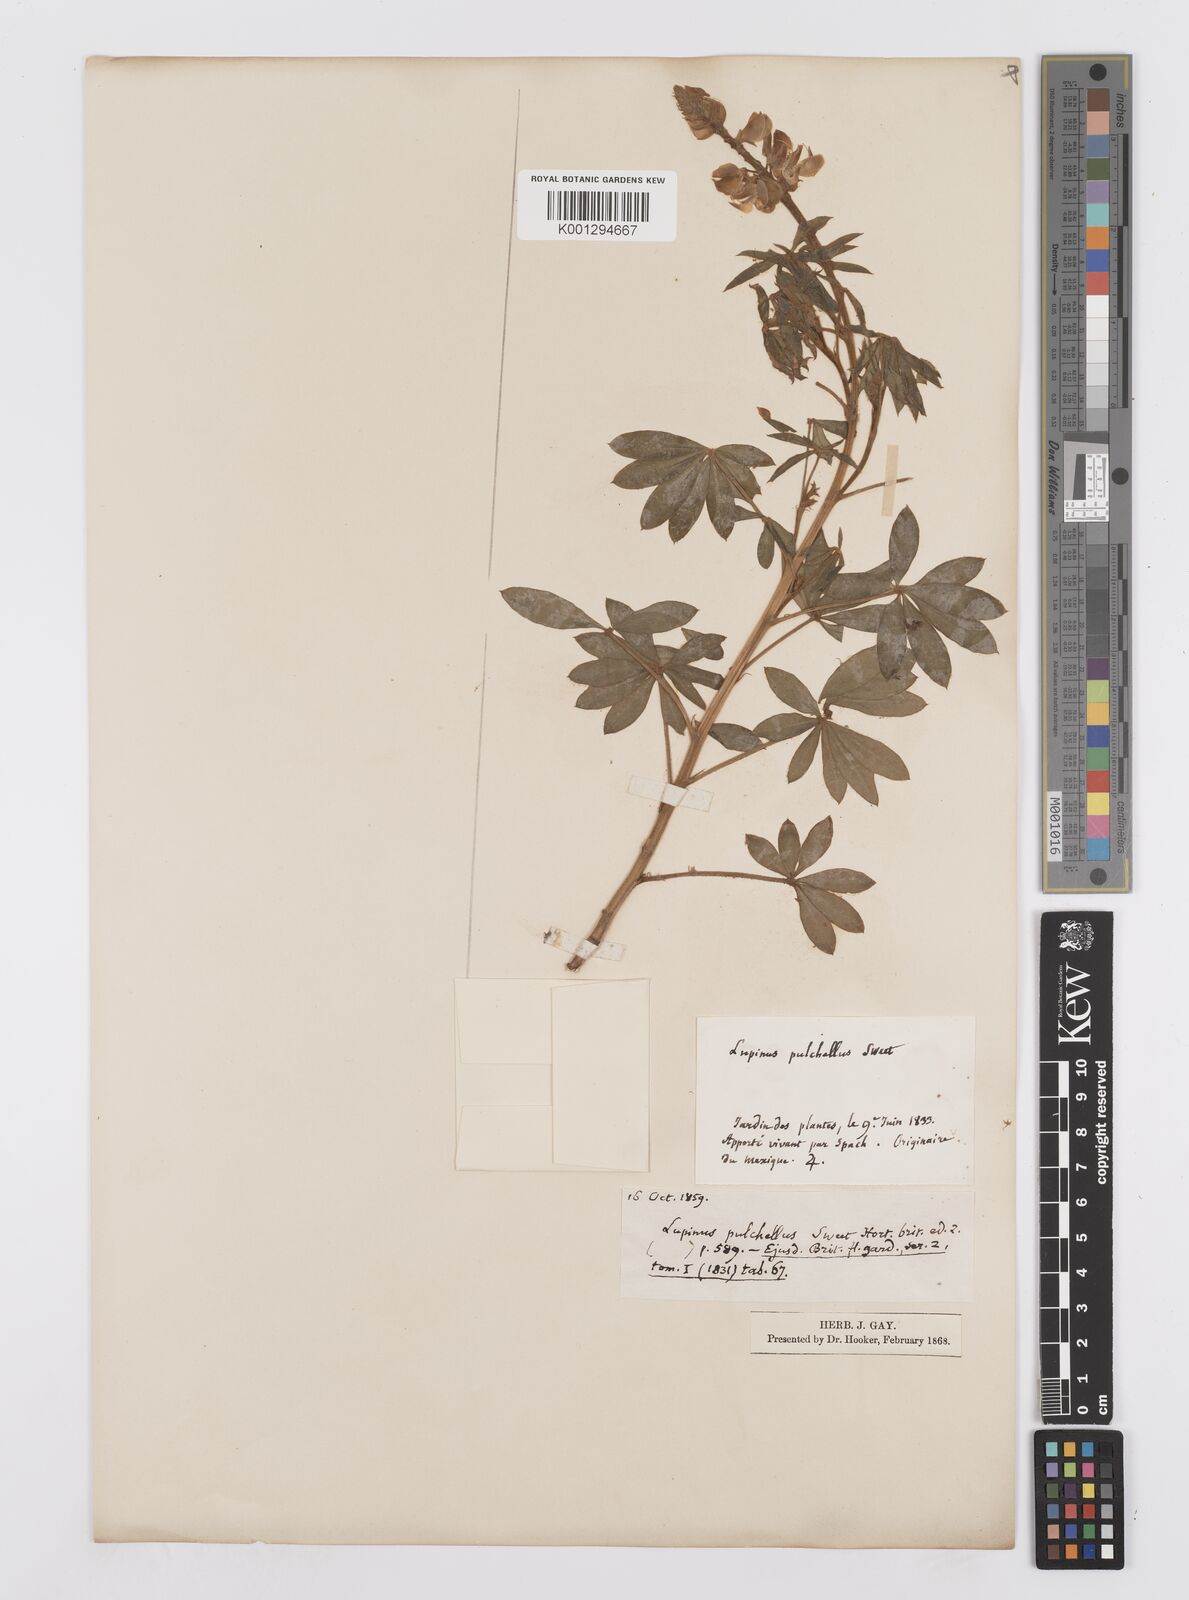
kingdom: Plantae
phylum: Tracheophyta
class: Magnoliopsida
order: Fabales
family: Fabaceae
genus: Lupinus
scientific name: Lupinus elegans
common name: Mexican lupine
